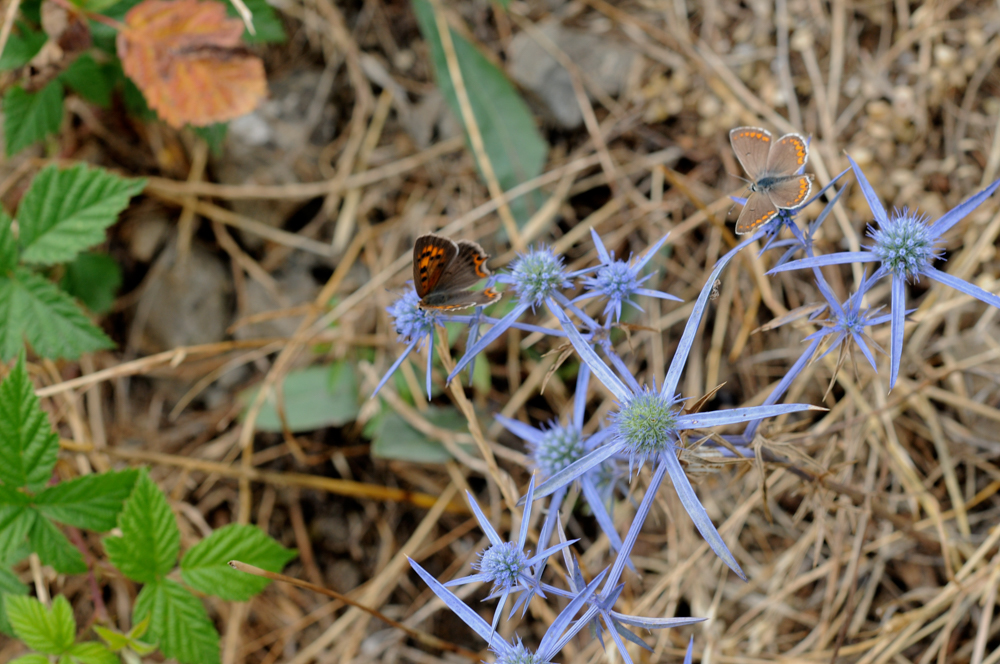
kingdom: Animalia
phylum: Arthropoda
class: Insecta
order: Lepidoptera
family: Lycaenidae
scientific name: Lycaenidae
